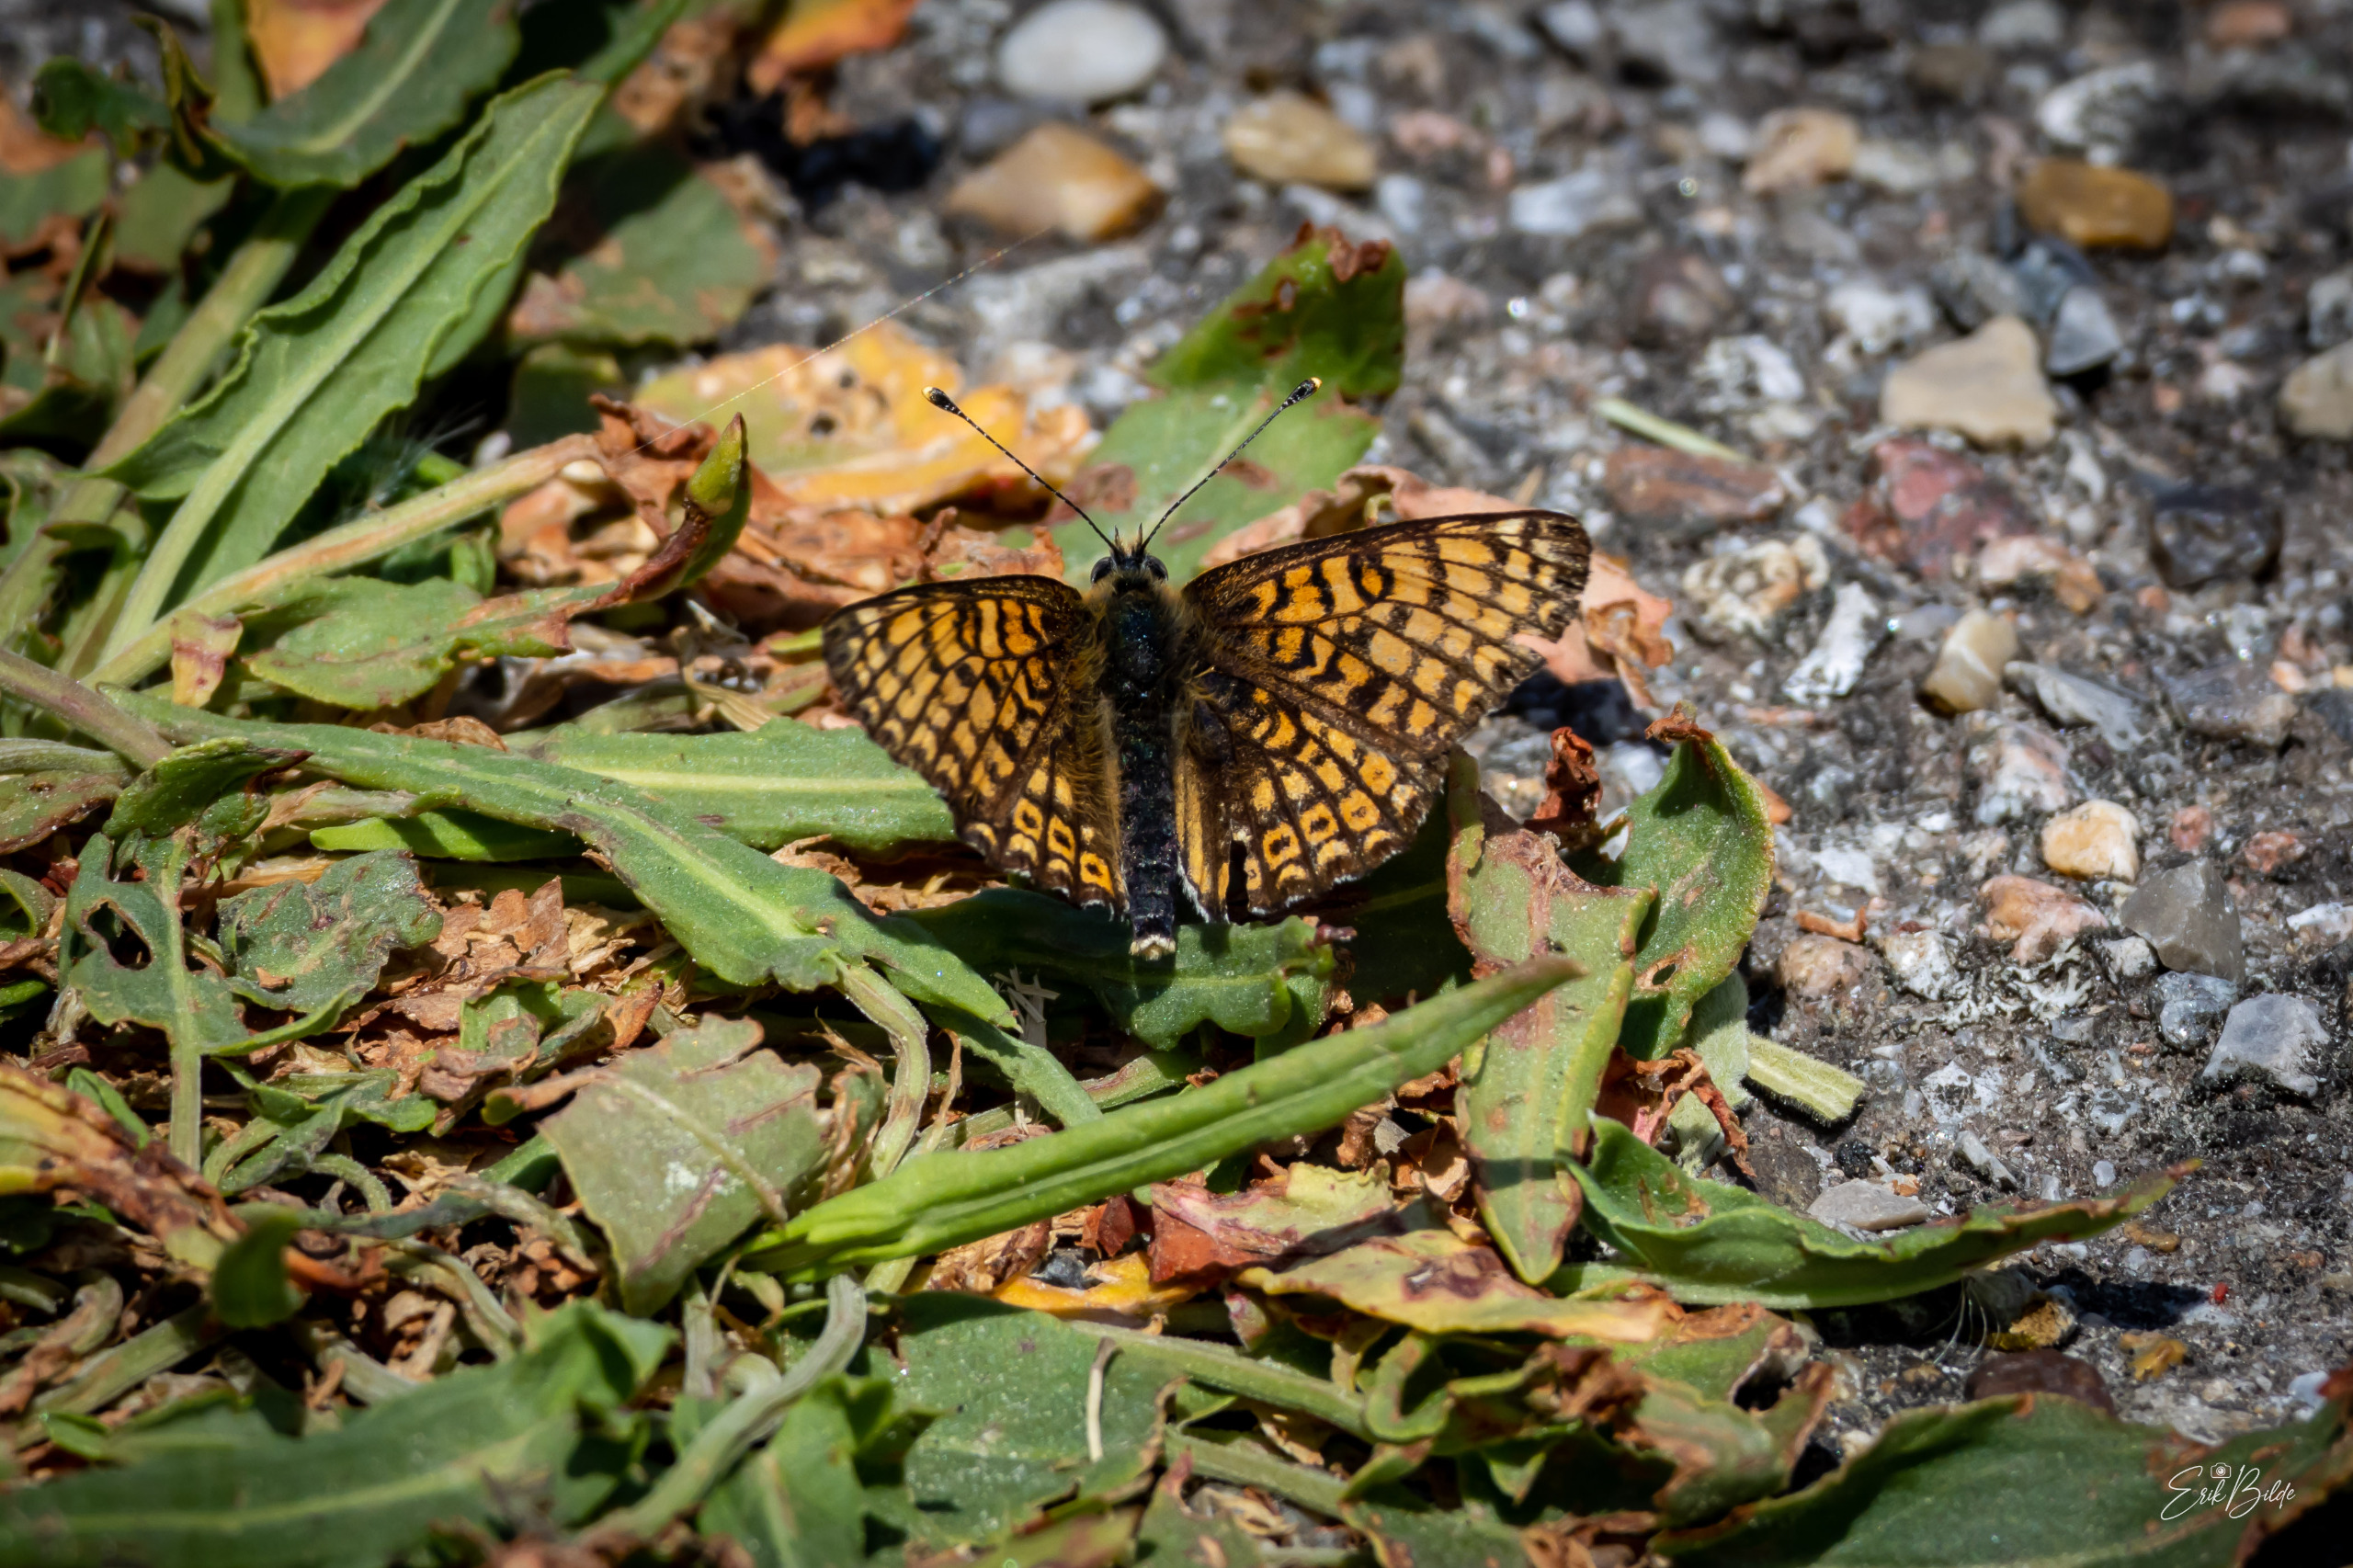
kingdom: Animalia
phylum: Arthropoda
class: Insecta
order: Lepidoptera
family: Nymphalidae
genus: Melitaea
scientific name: Melitaea cinxia
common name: Okkergul pletvinge
